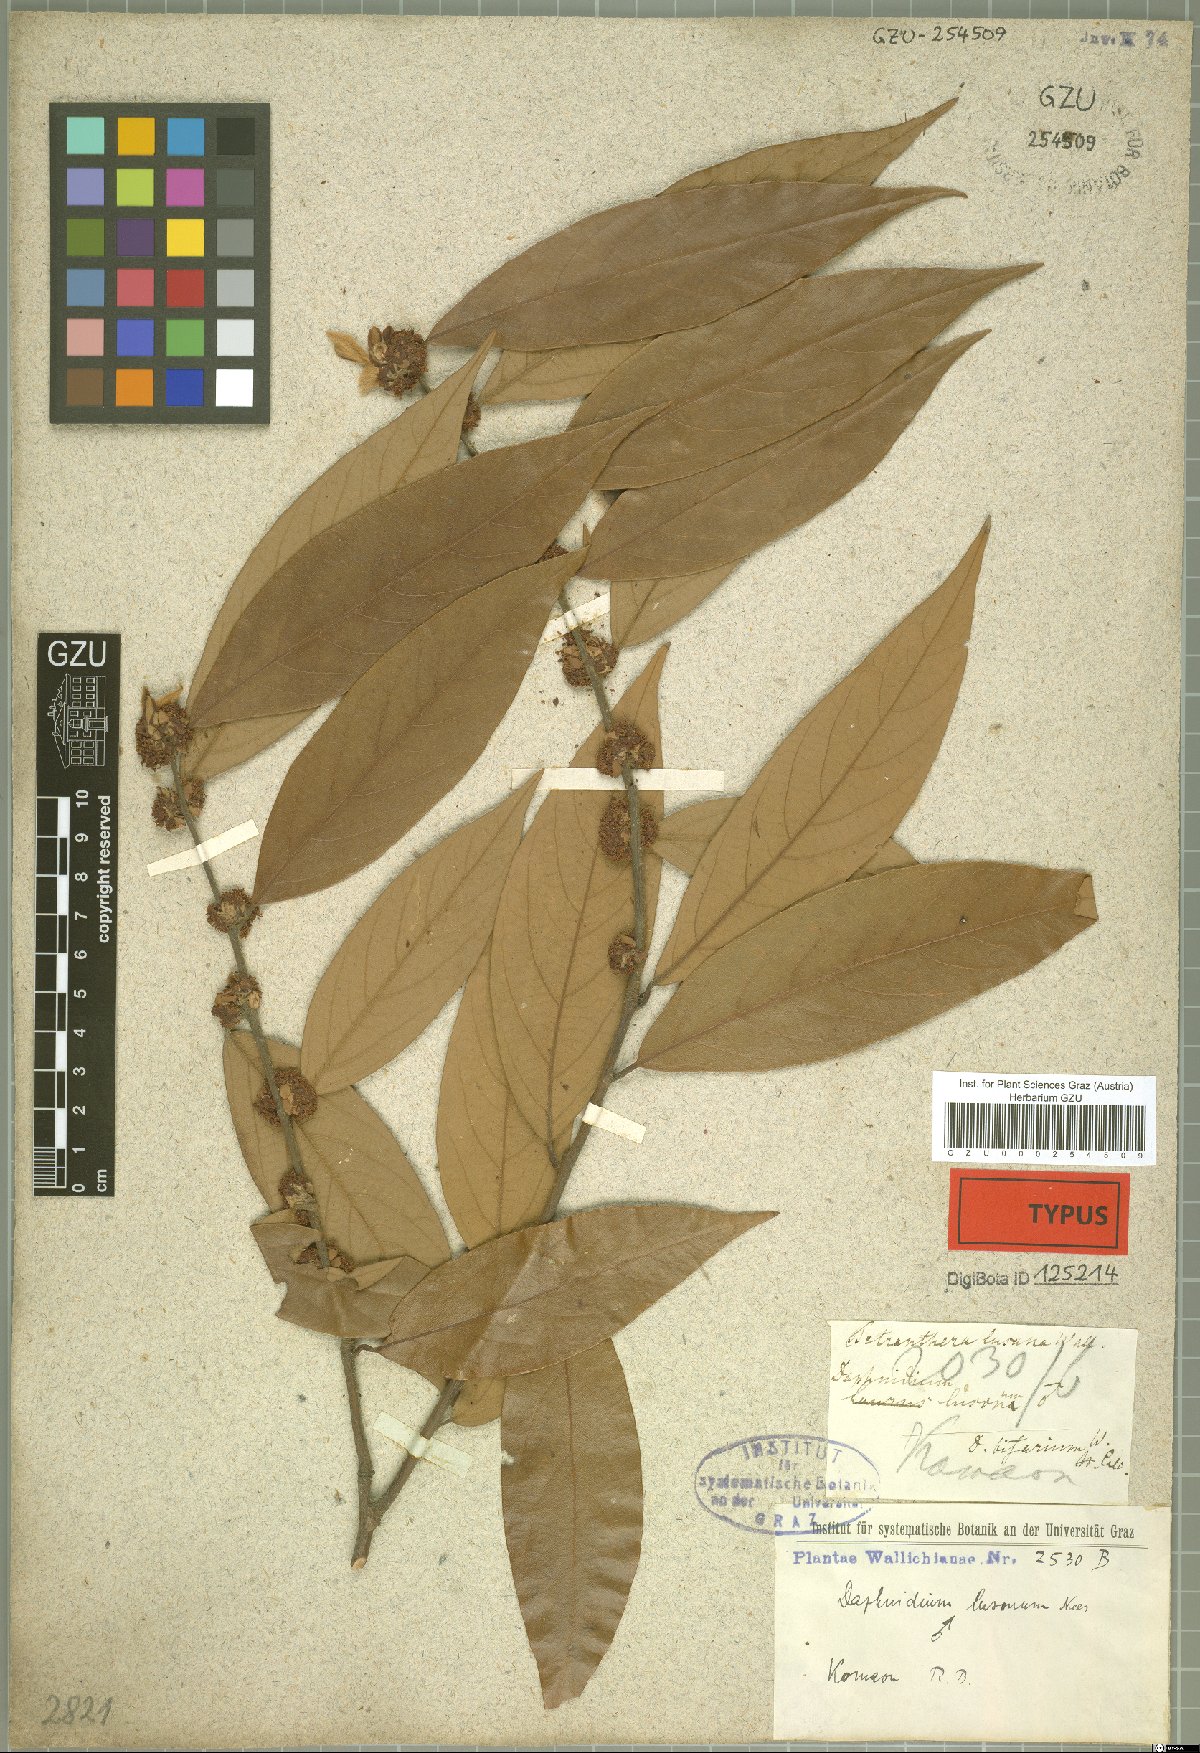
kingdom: Plantae
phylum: Tracheophyta
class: Magnoliopsida
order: Laurales
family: Lauraceae
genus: Lindera
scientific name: Lindera nacusua
